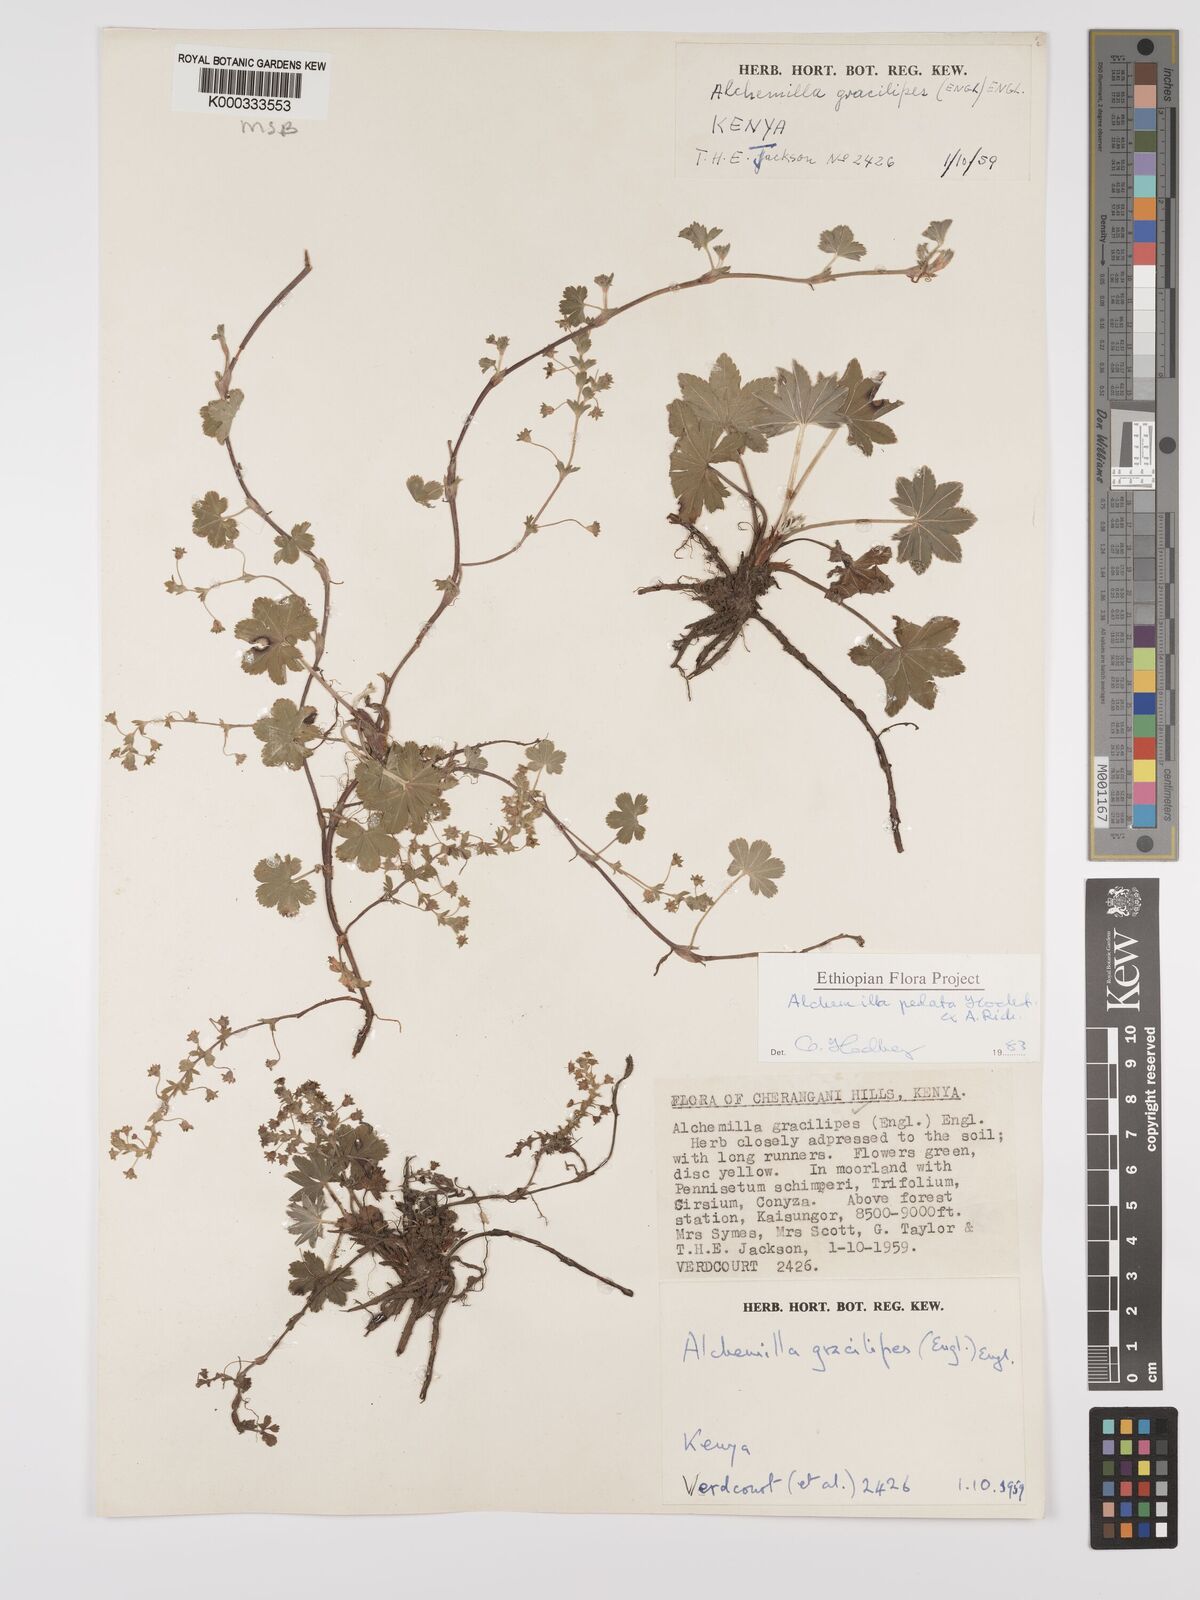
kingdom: Plantae
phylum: Tracheophyta
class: Magnoliopsida
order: Rosales
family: Rosaceae
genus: Alchemilla
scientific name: Alchemilla pedata
